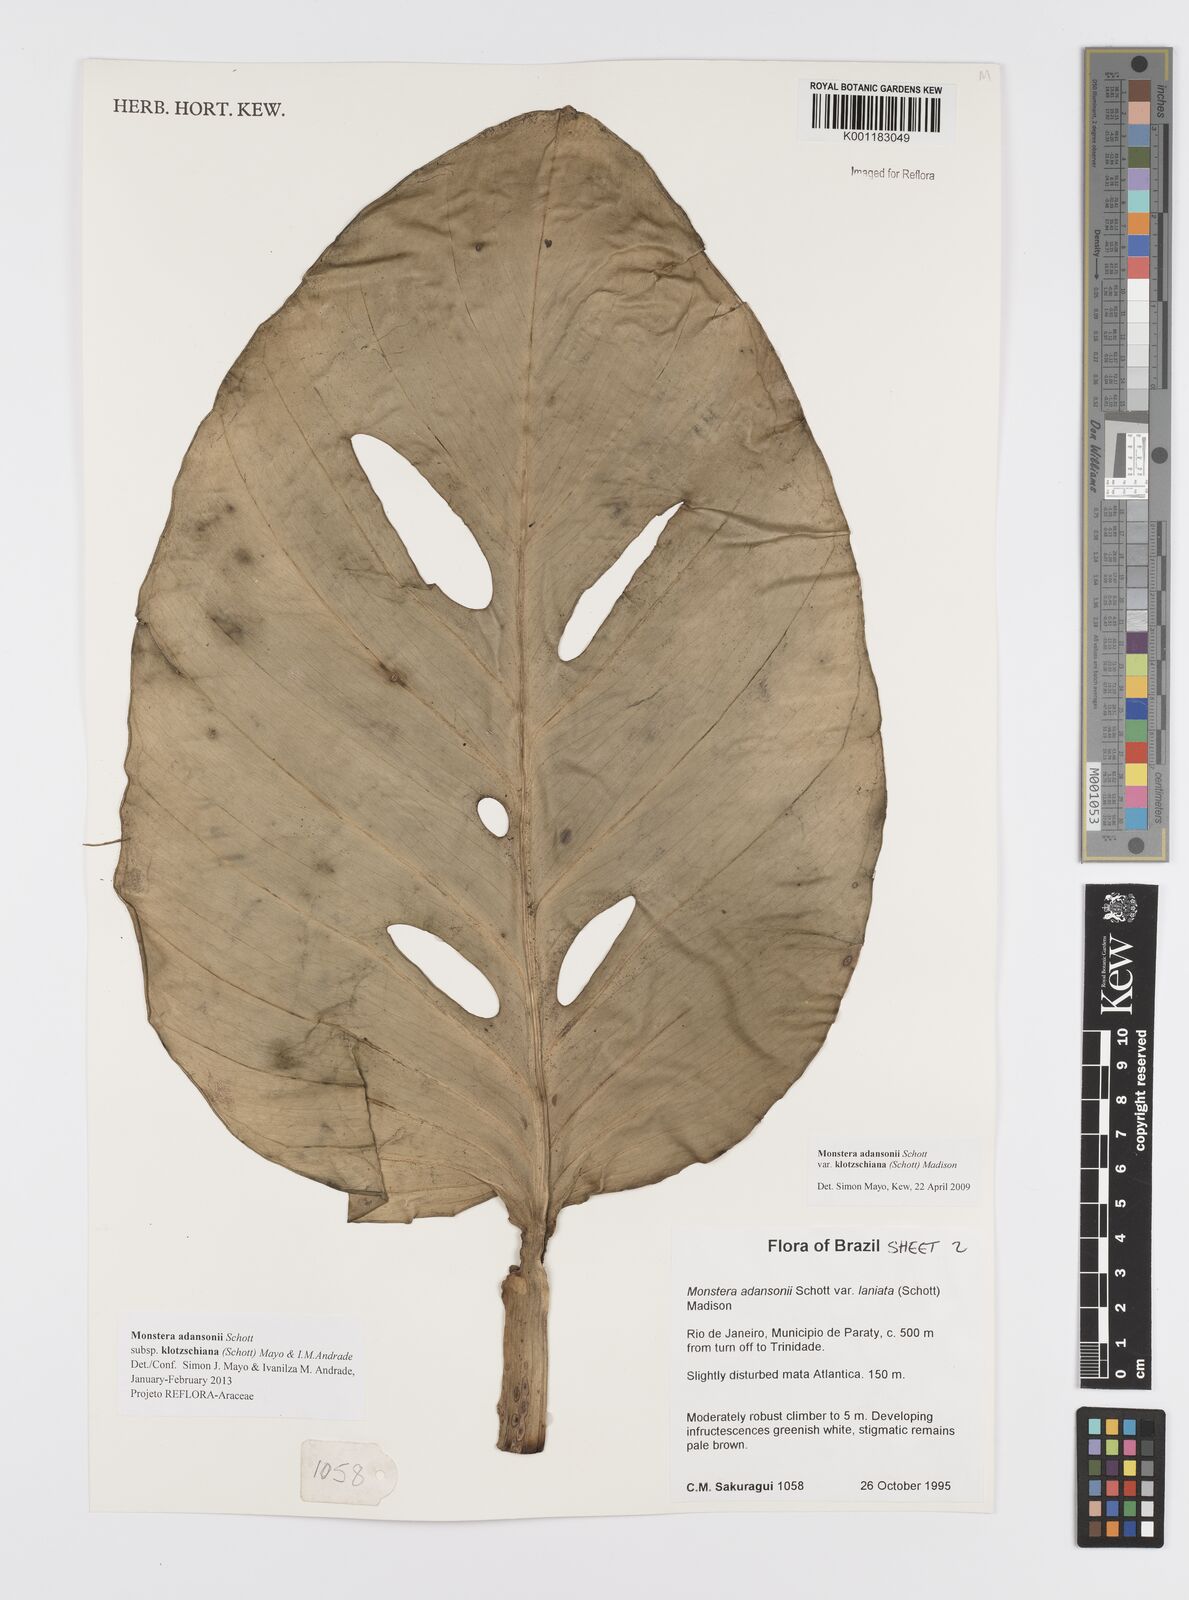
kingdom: Plantae
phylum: Tracheophyta
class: Liliopsida
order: Alismatales
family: Araceae
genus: Monstera
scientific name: Monstera adansonii
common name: Tarovine
